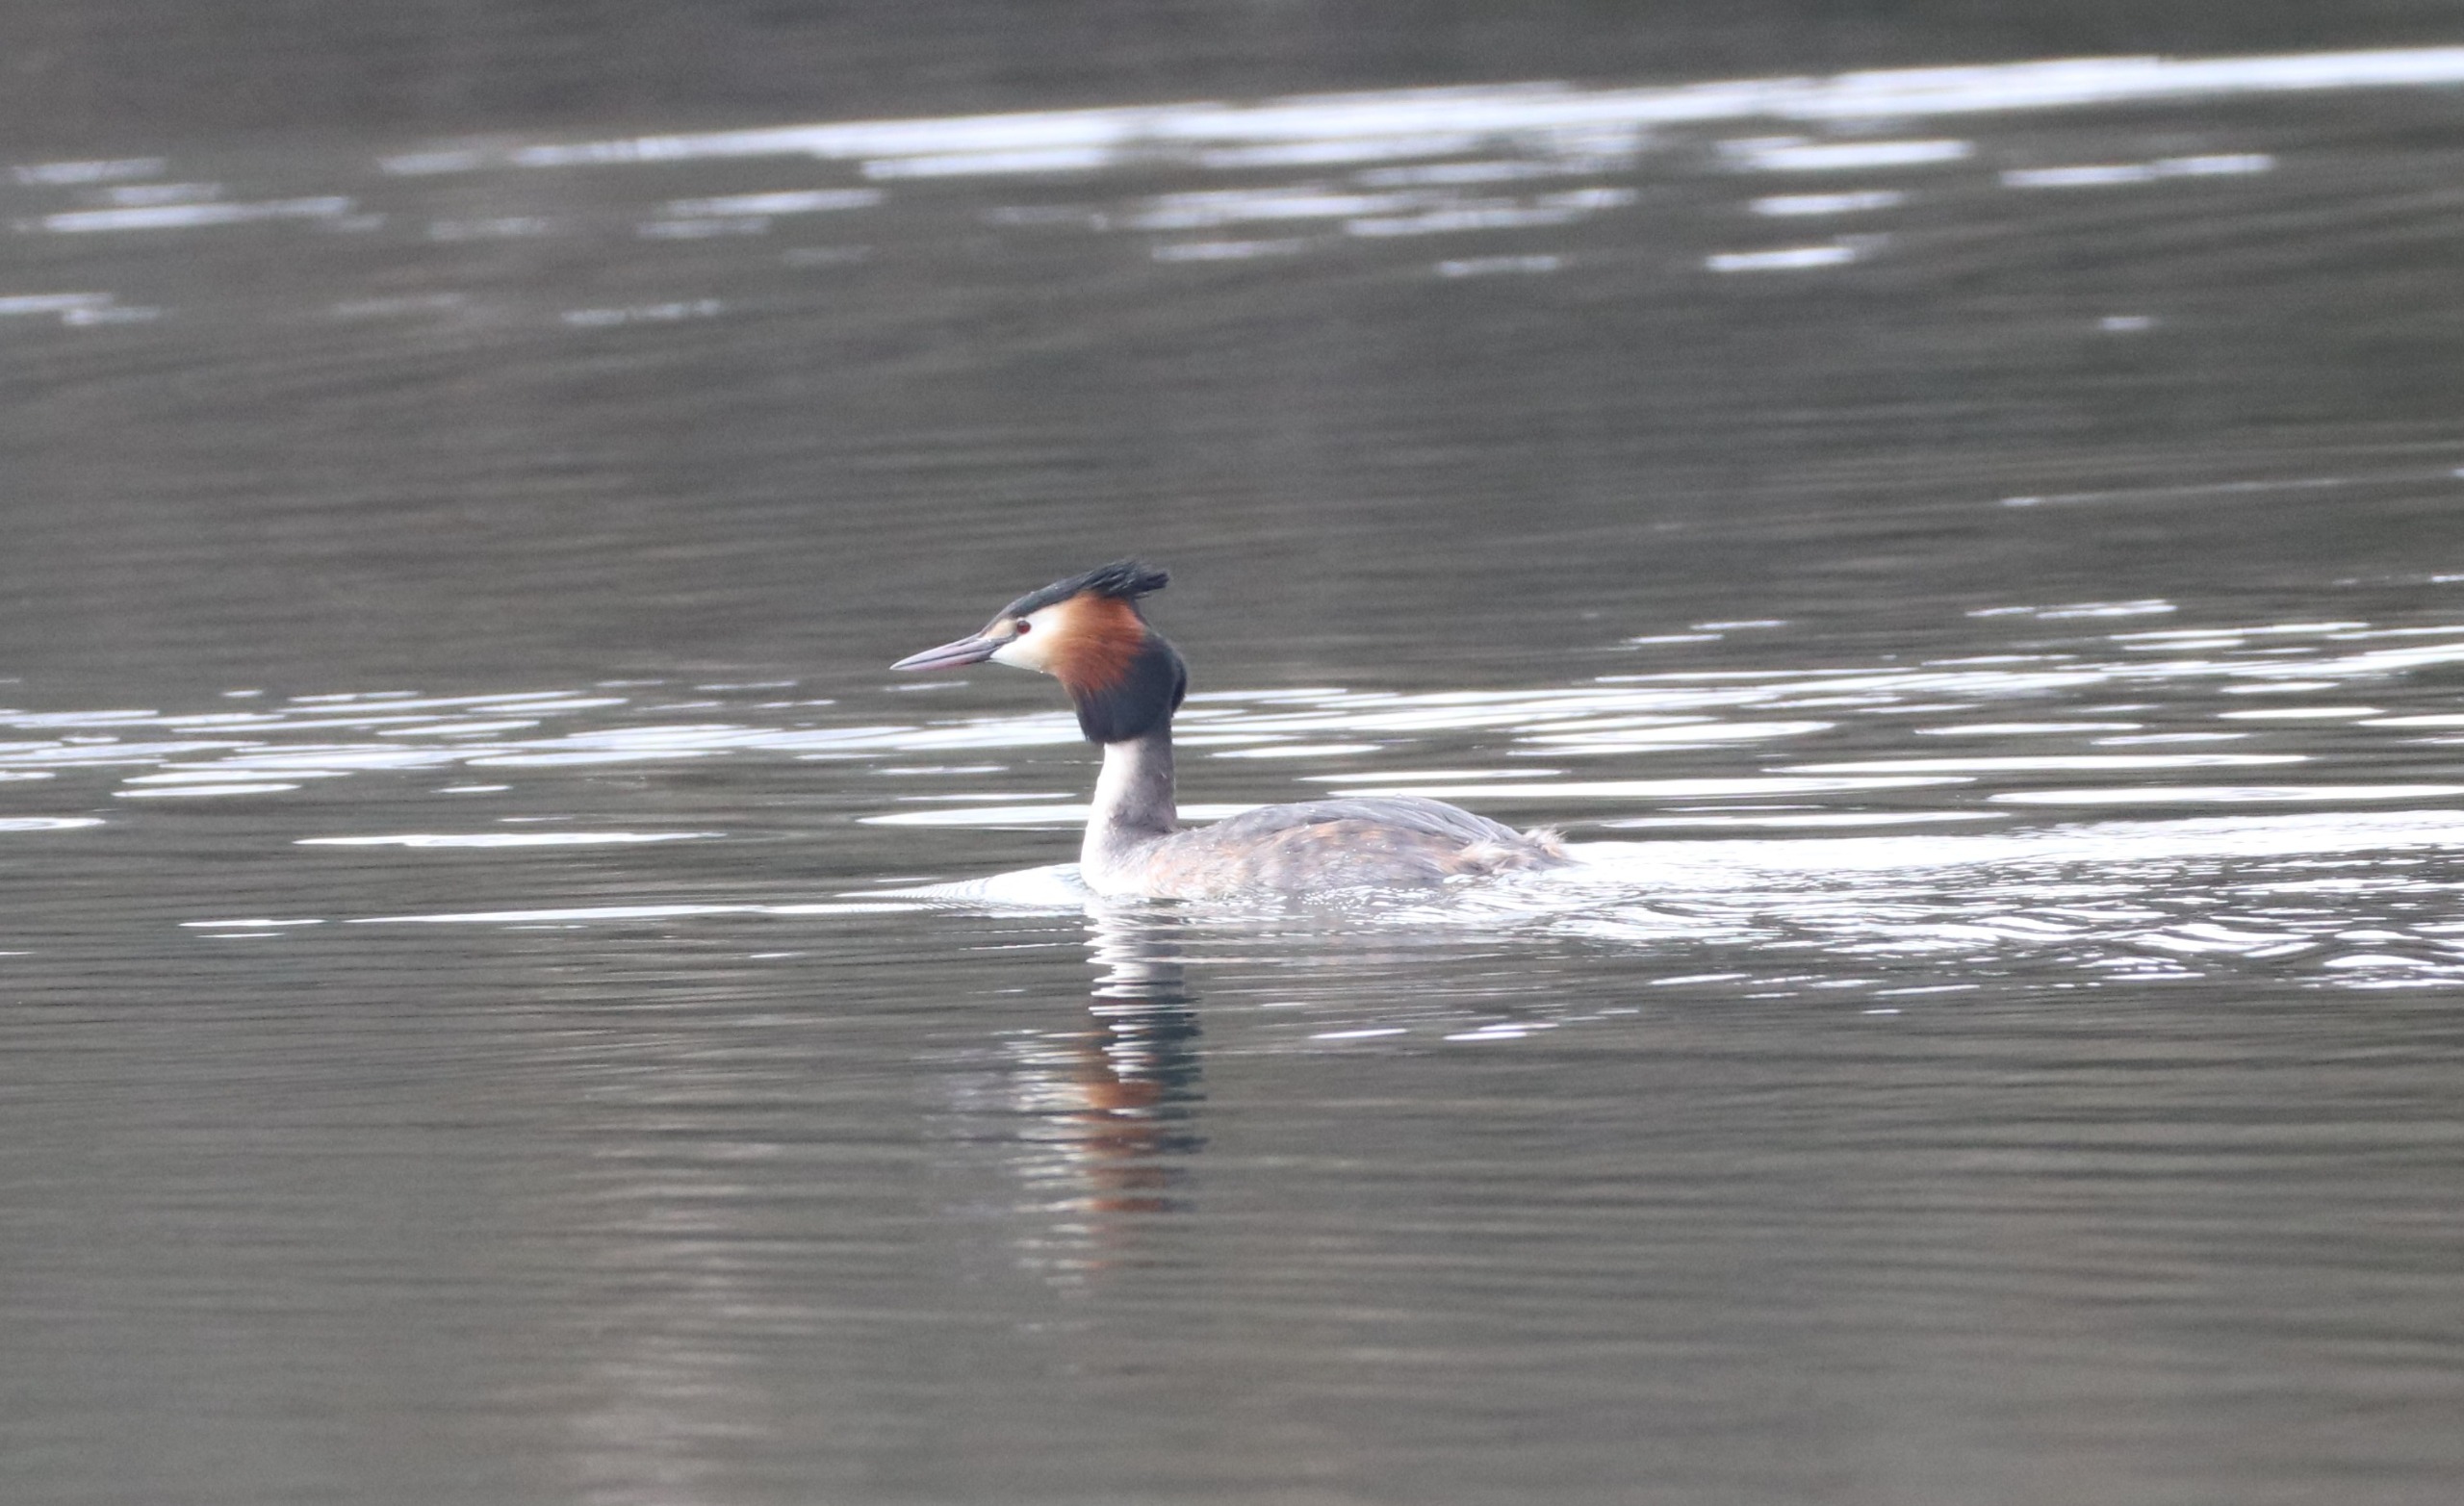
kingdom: Animalia
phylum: Chordata
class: Aves
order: Podicipediformes
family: Podicipedidae
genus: Podiceps
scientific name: Podiceps cristatus
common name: Toppet lappedykker
